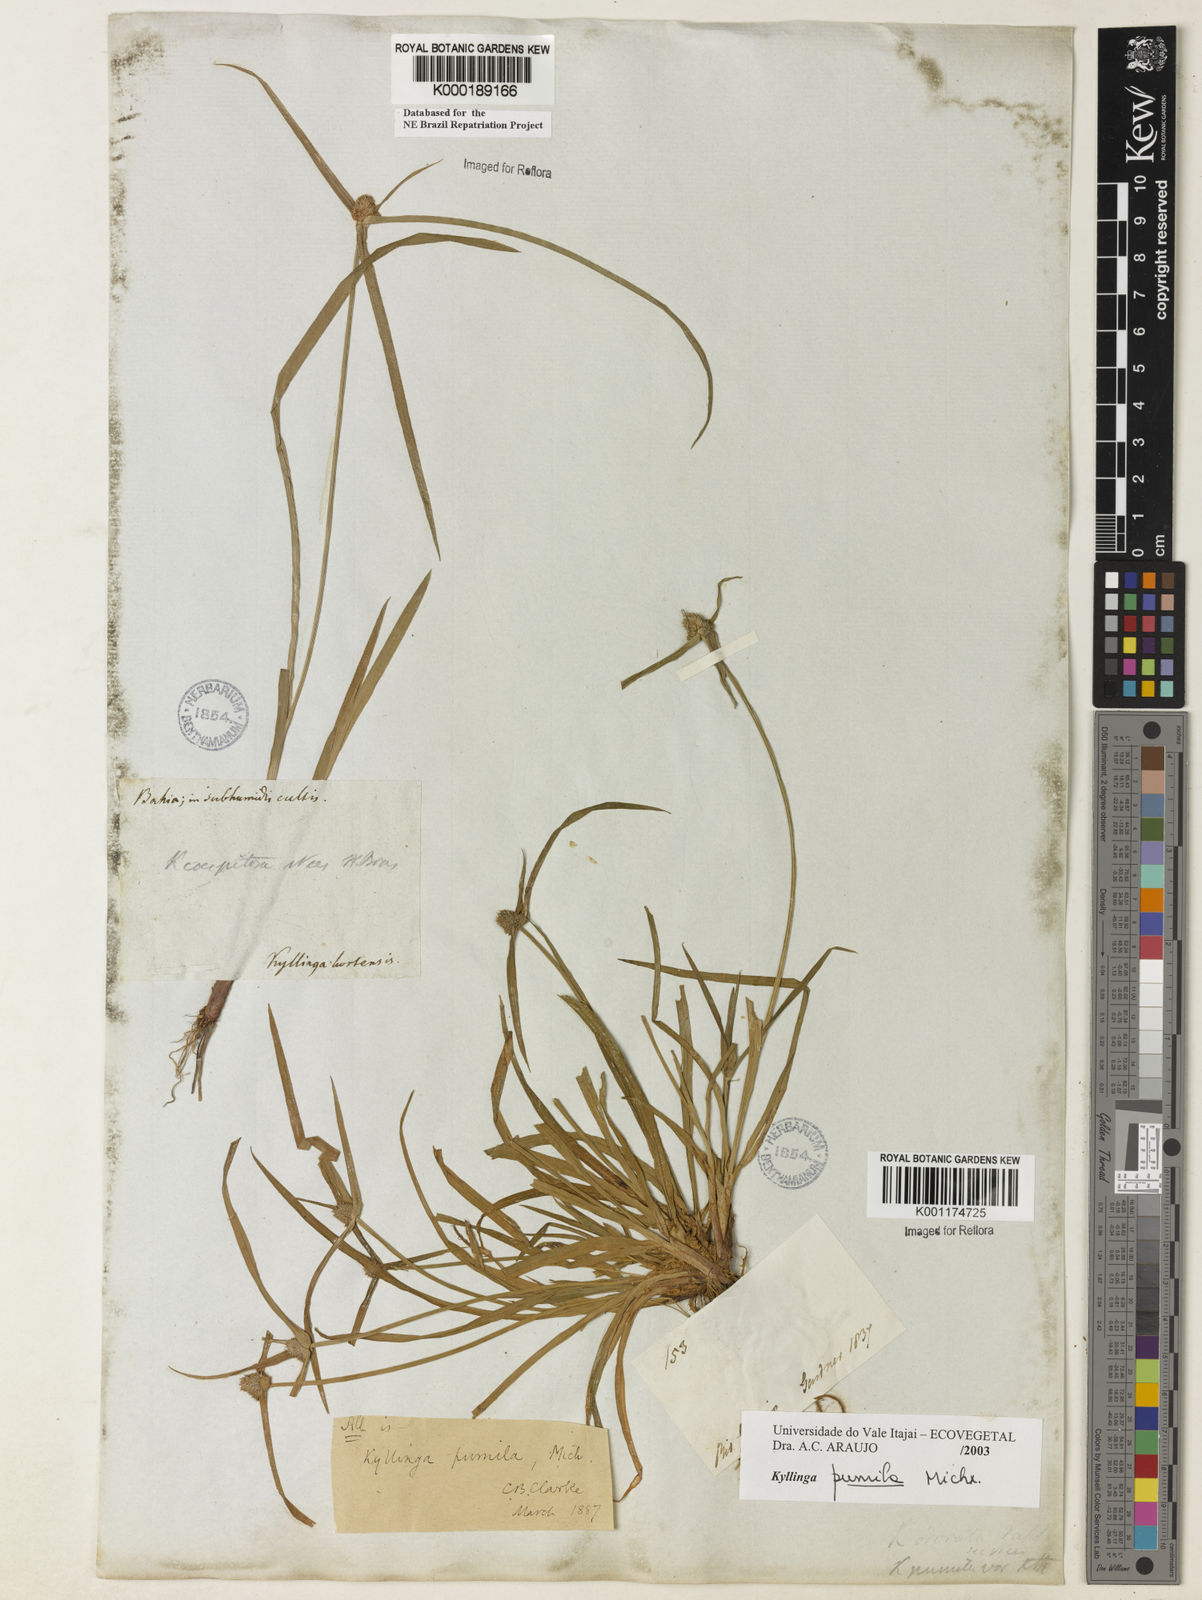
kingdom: Plantae
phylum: Tracheophyta
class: Liliopsida
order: Poales
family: Cyperaceae
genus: Cyperus
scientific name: Cyperus hortensis
